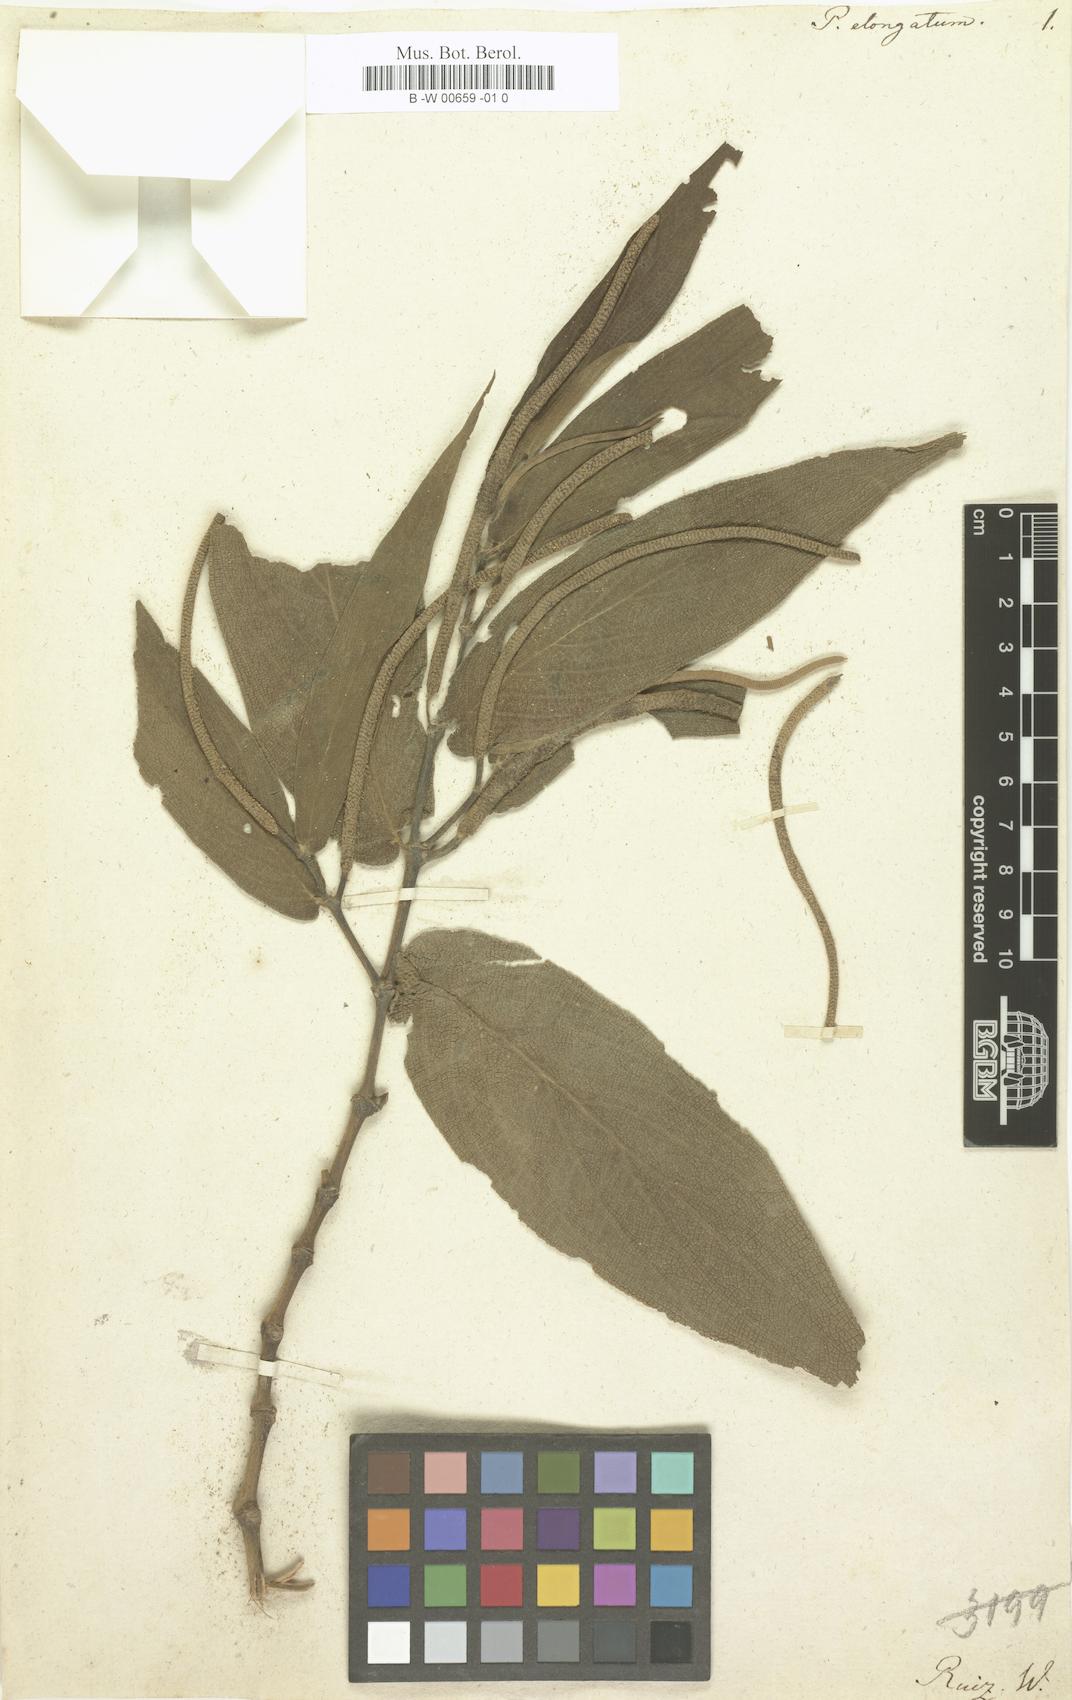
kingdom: Plantae
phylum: Tracheophyta
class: Magnoliopsida
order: Piperales
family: Piperaceae
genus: Piper
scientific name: Piper elongatum
